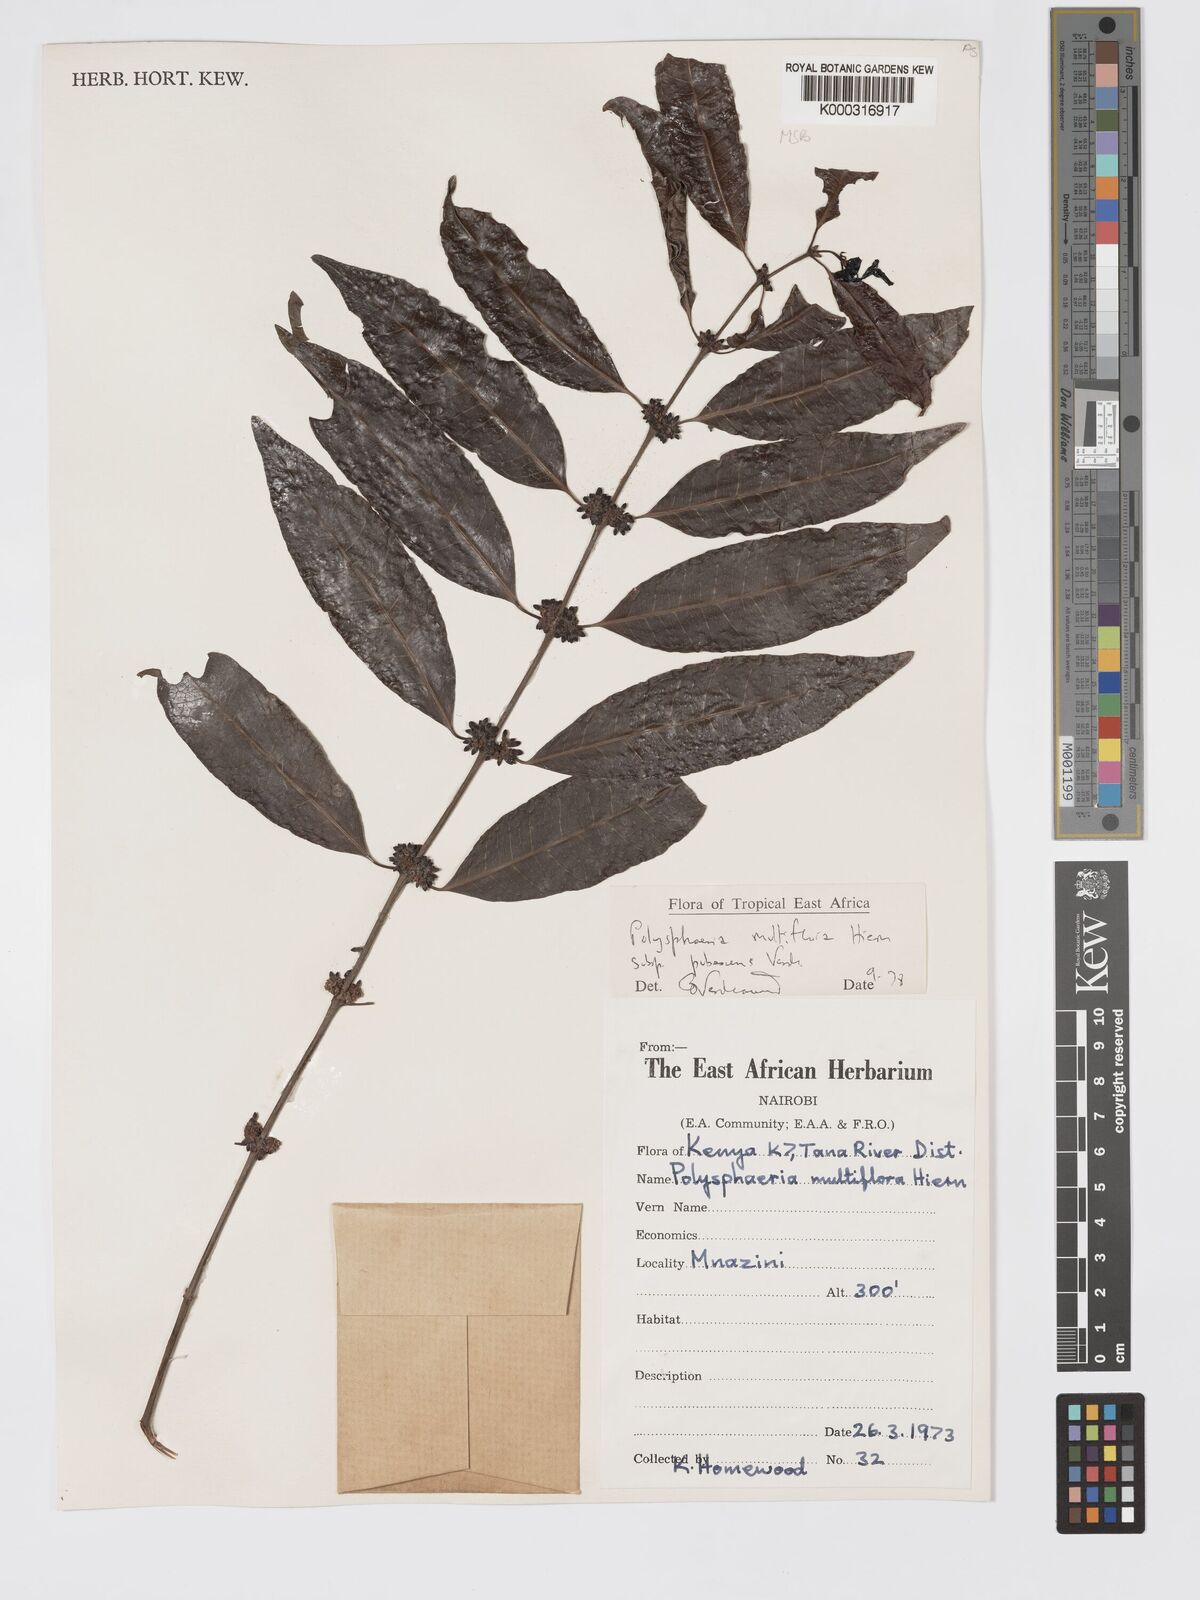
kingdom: Plantae
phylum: Tracheophyta
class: Magnoliopsida
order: Gentianales
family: Rubiaceae
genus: Polysphaeria
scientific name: Polysphaeria multiflora
